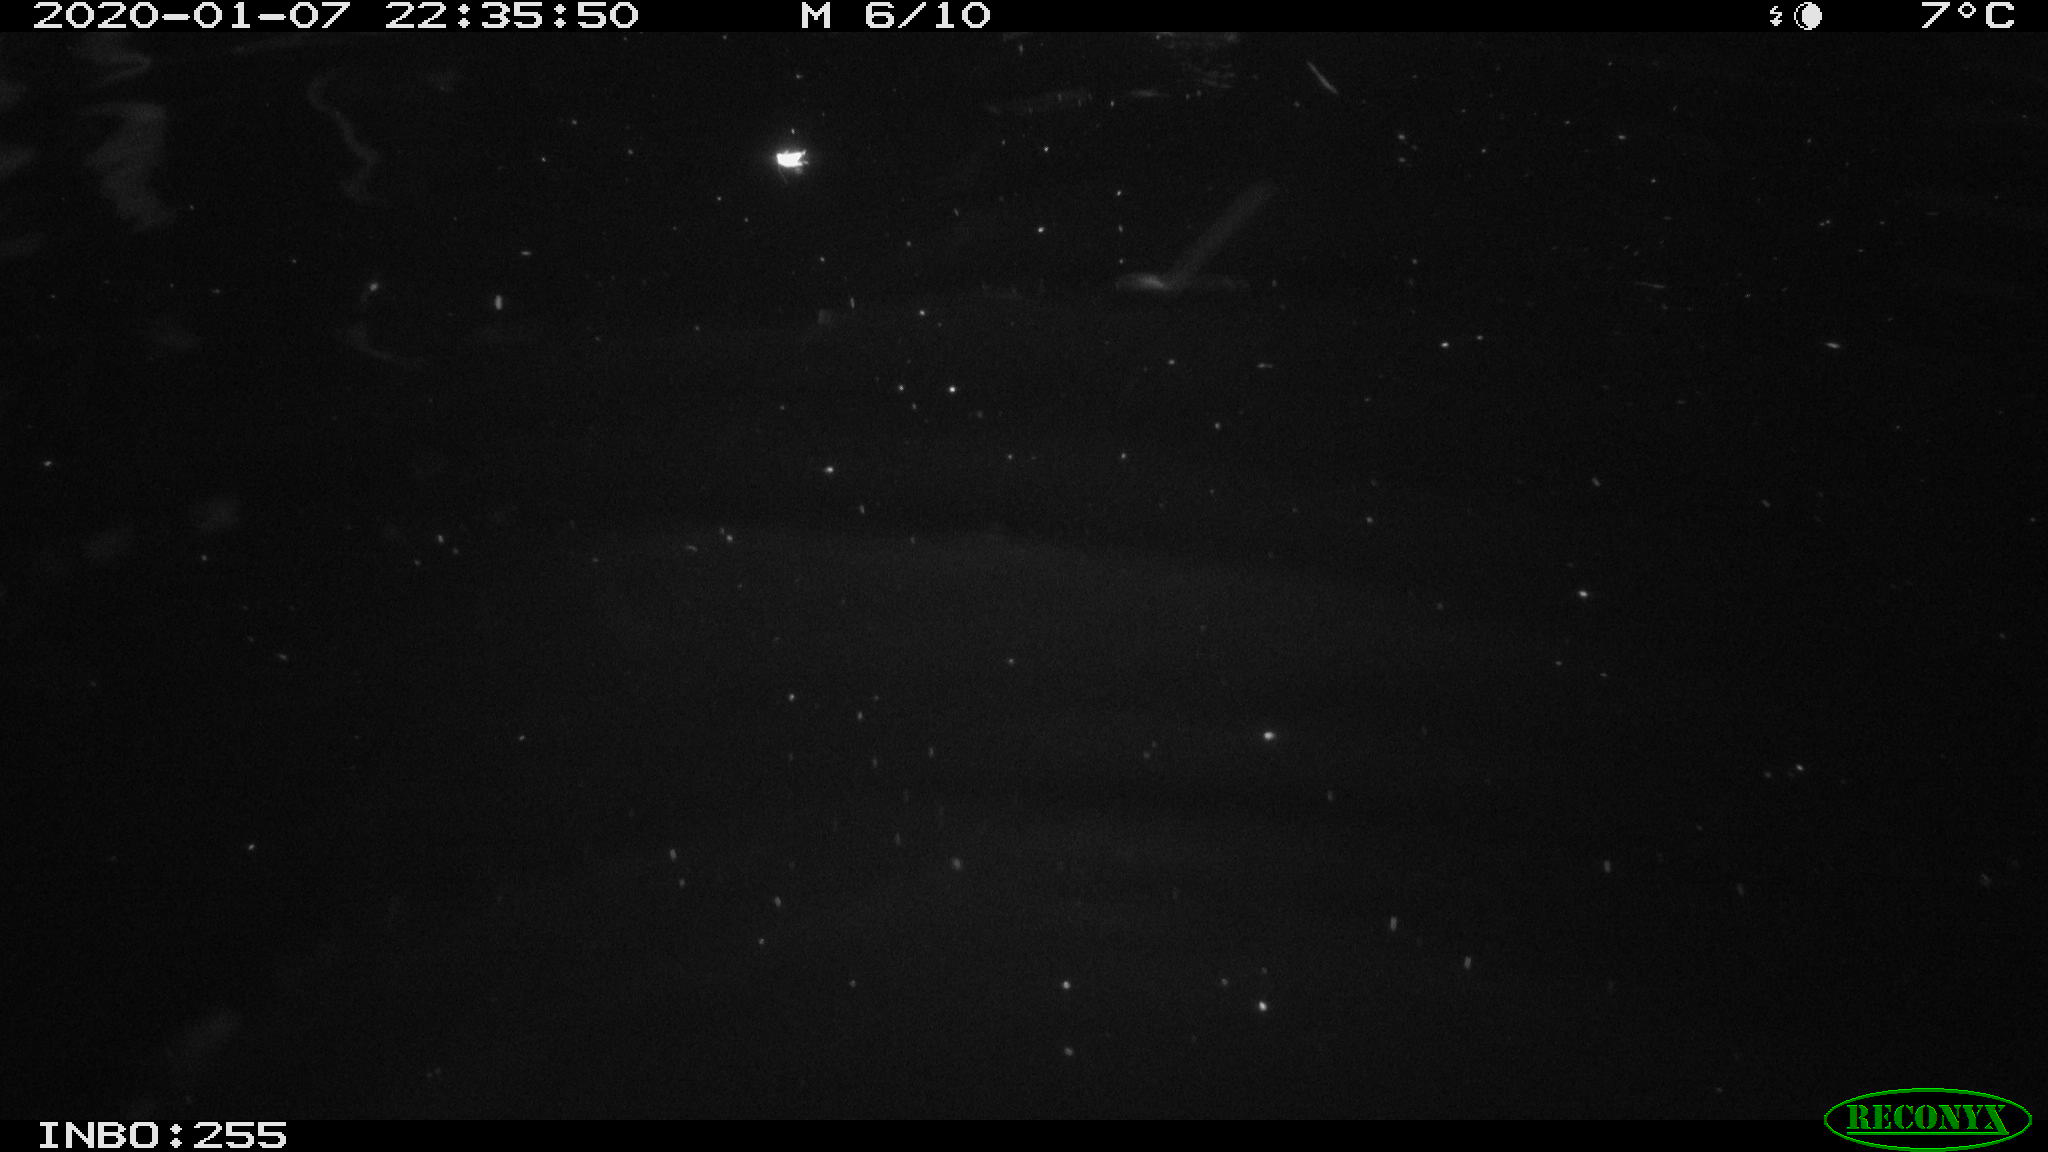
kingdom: Animalia
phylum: Chordata
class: Aves
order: Anseriformes
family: Anatidae
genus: Anas
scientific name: Anas platyrhynchos
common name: Mallard
